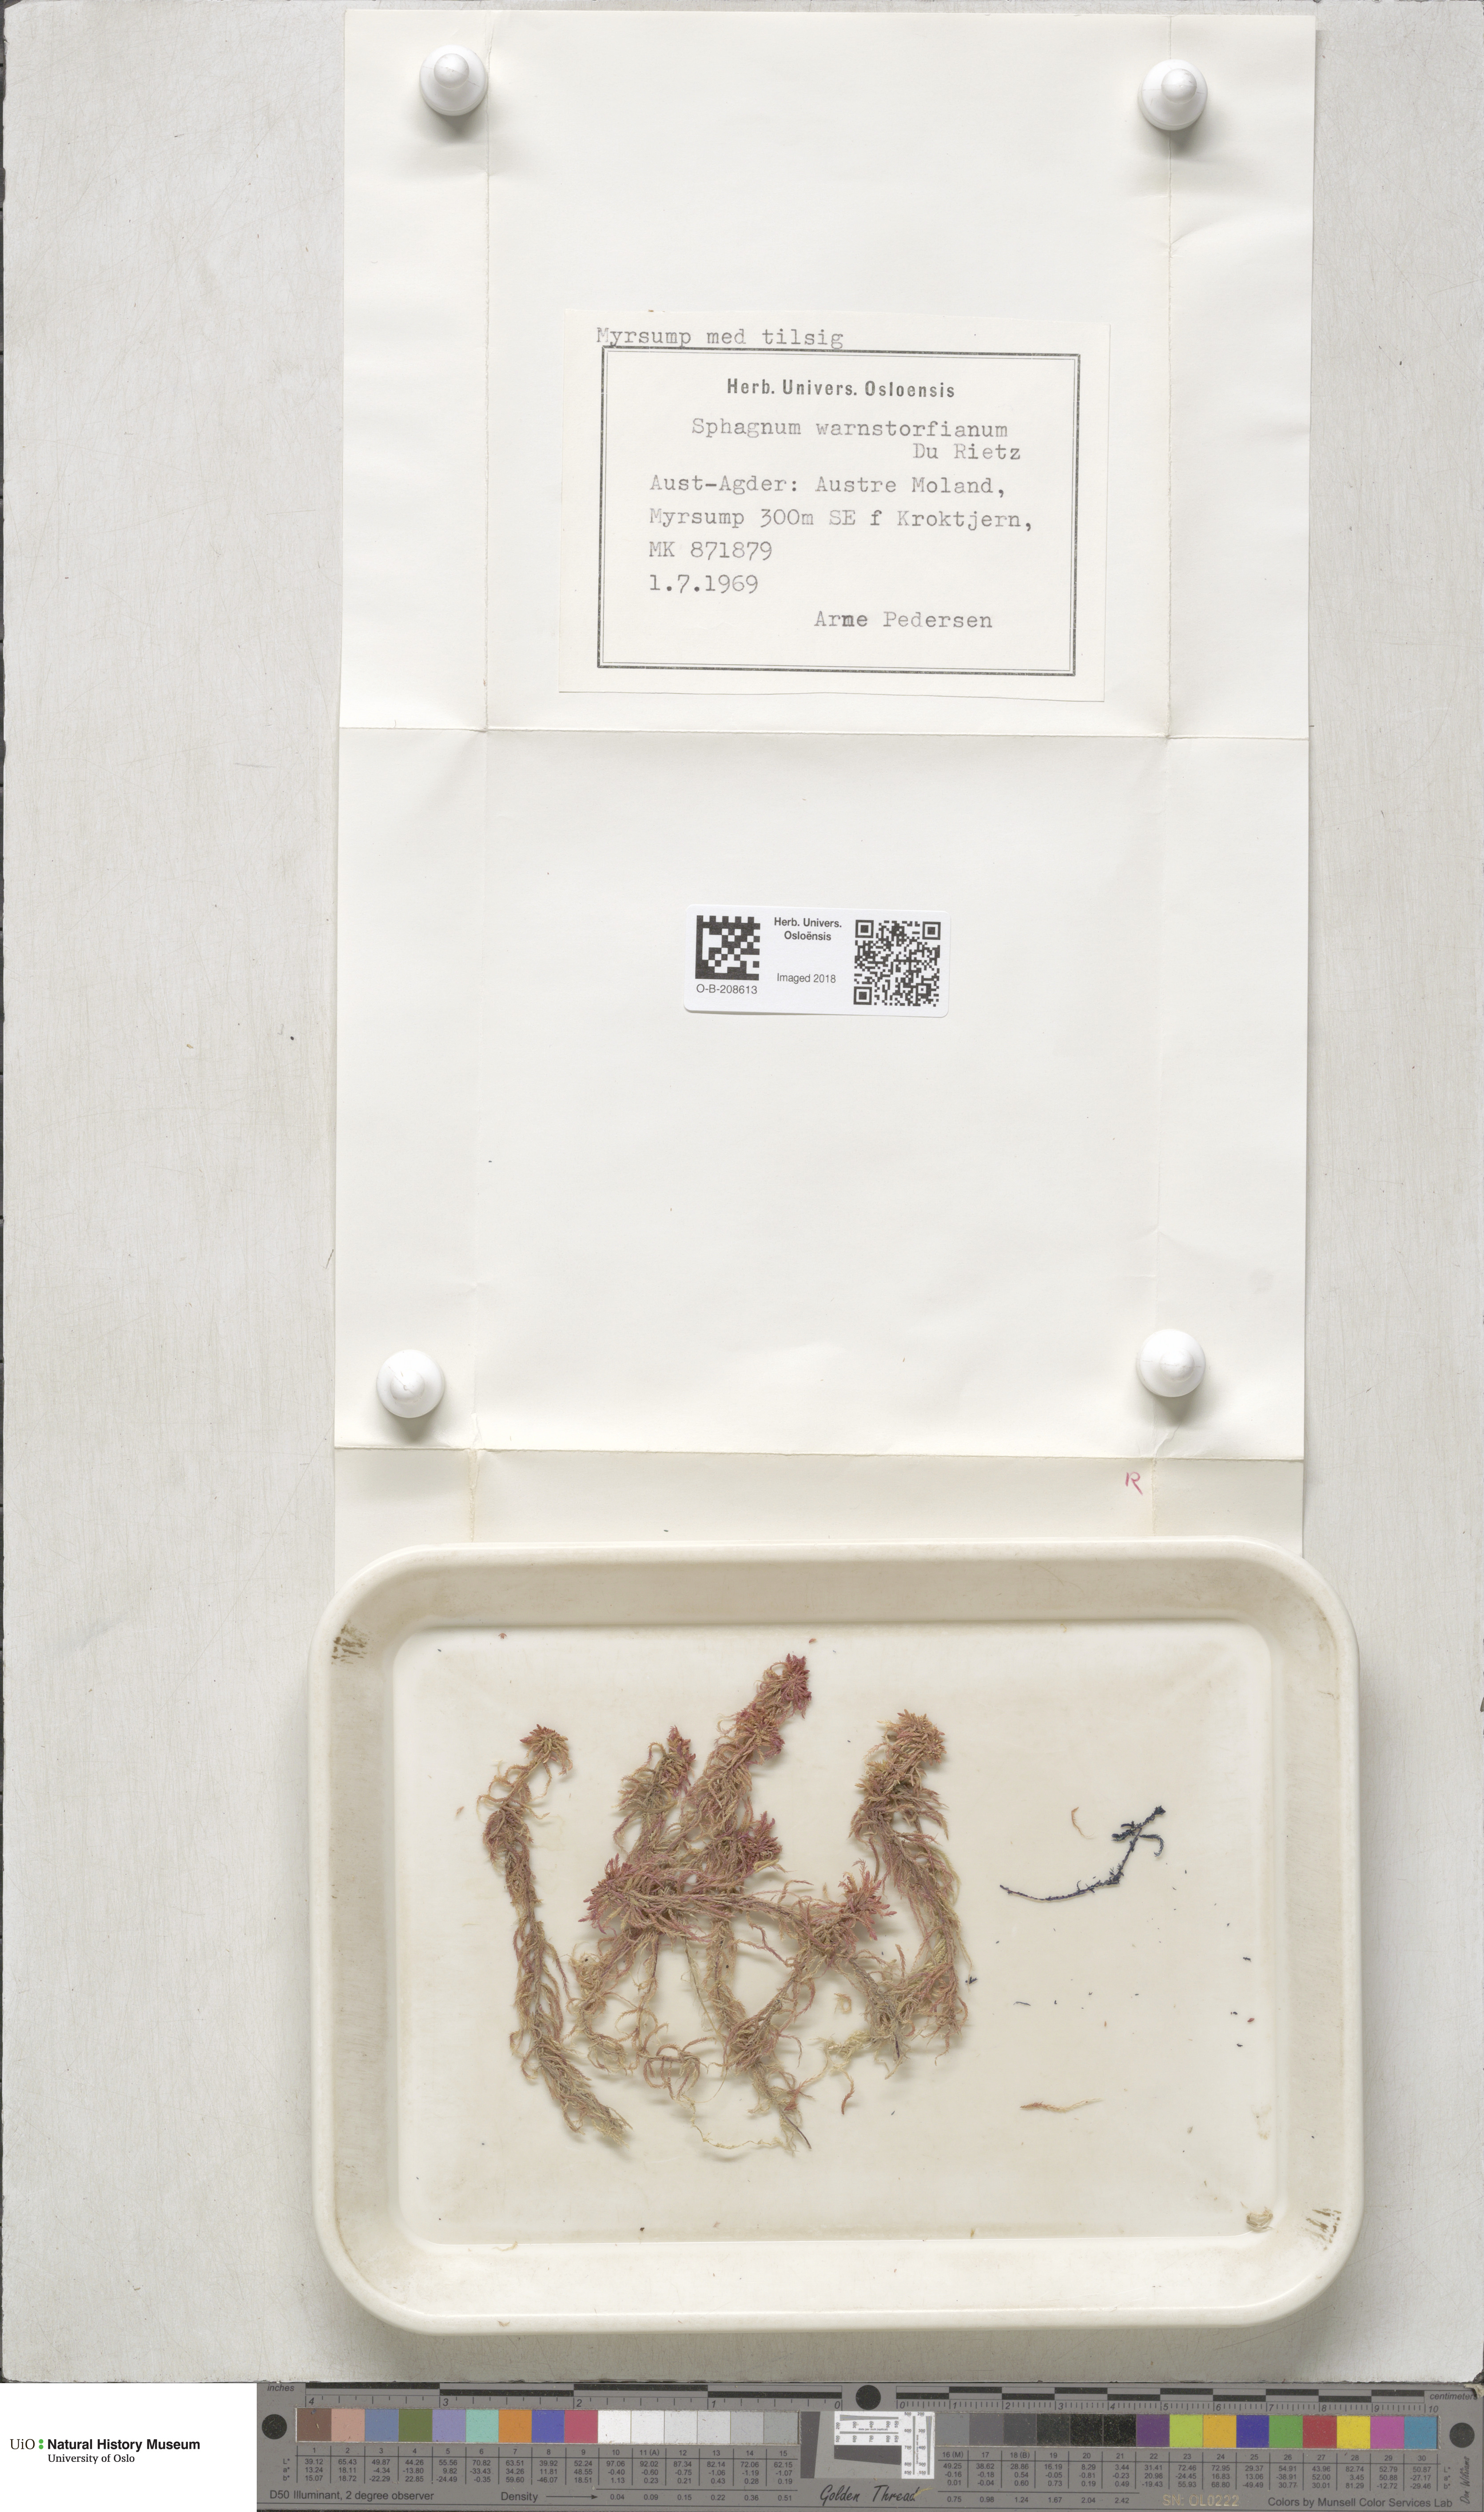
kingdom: Plantae
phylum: Bryophyta
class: Sphagnopsida
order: Sphagnales
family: Sphagnaceae
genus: Sphagnum
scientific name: Sphagnum warnstorfii
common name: Warnstorf's peat moss
